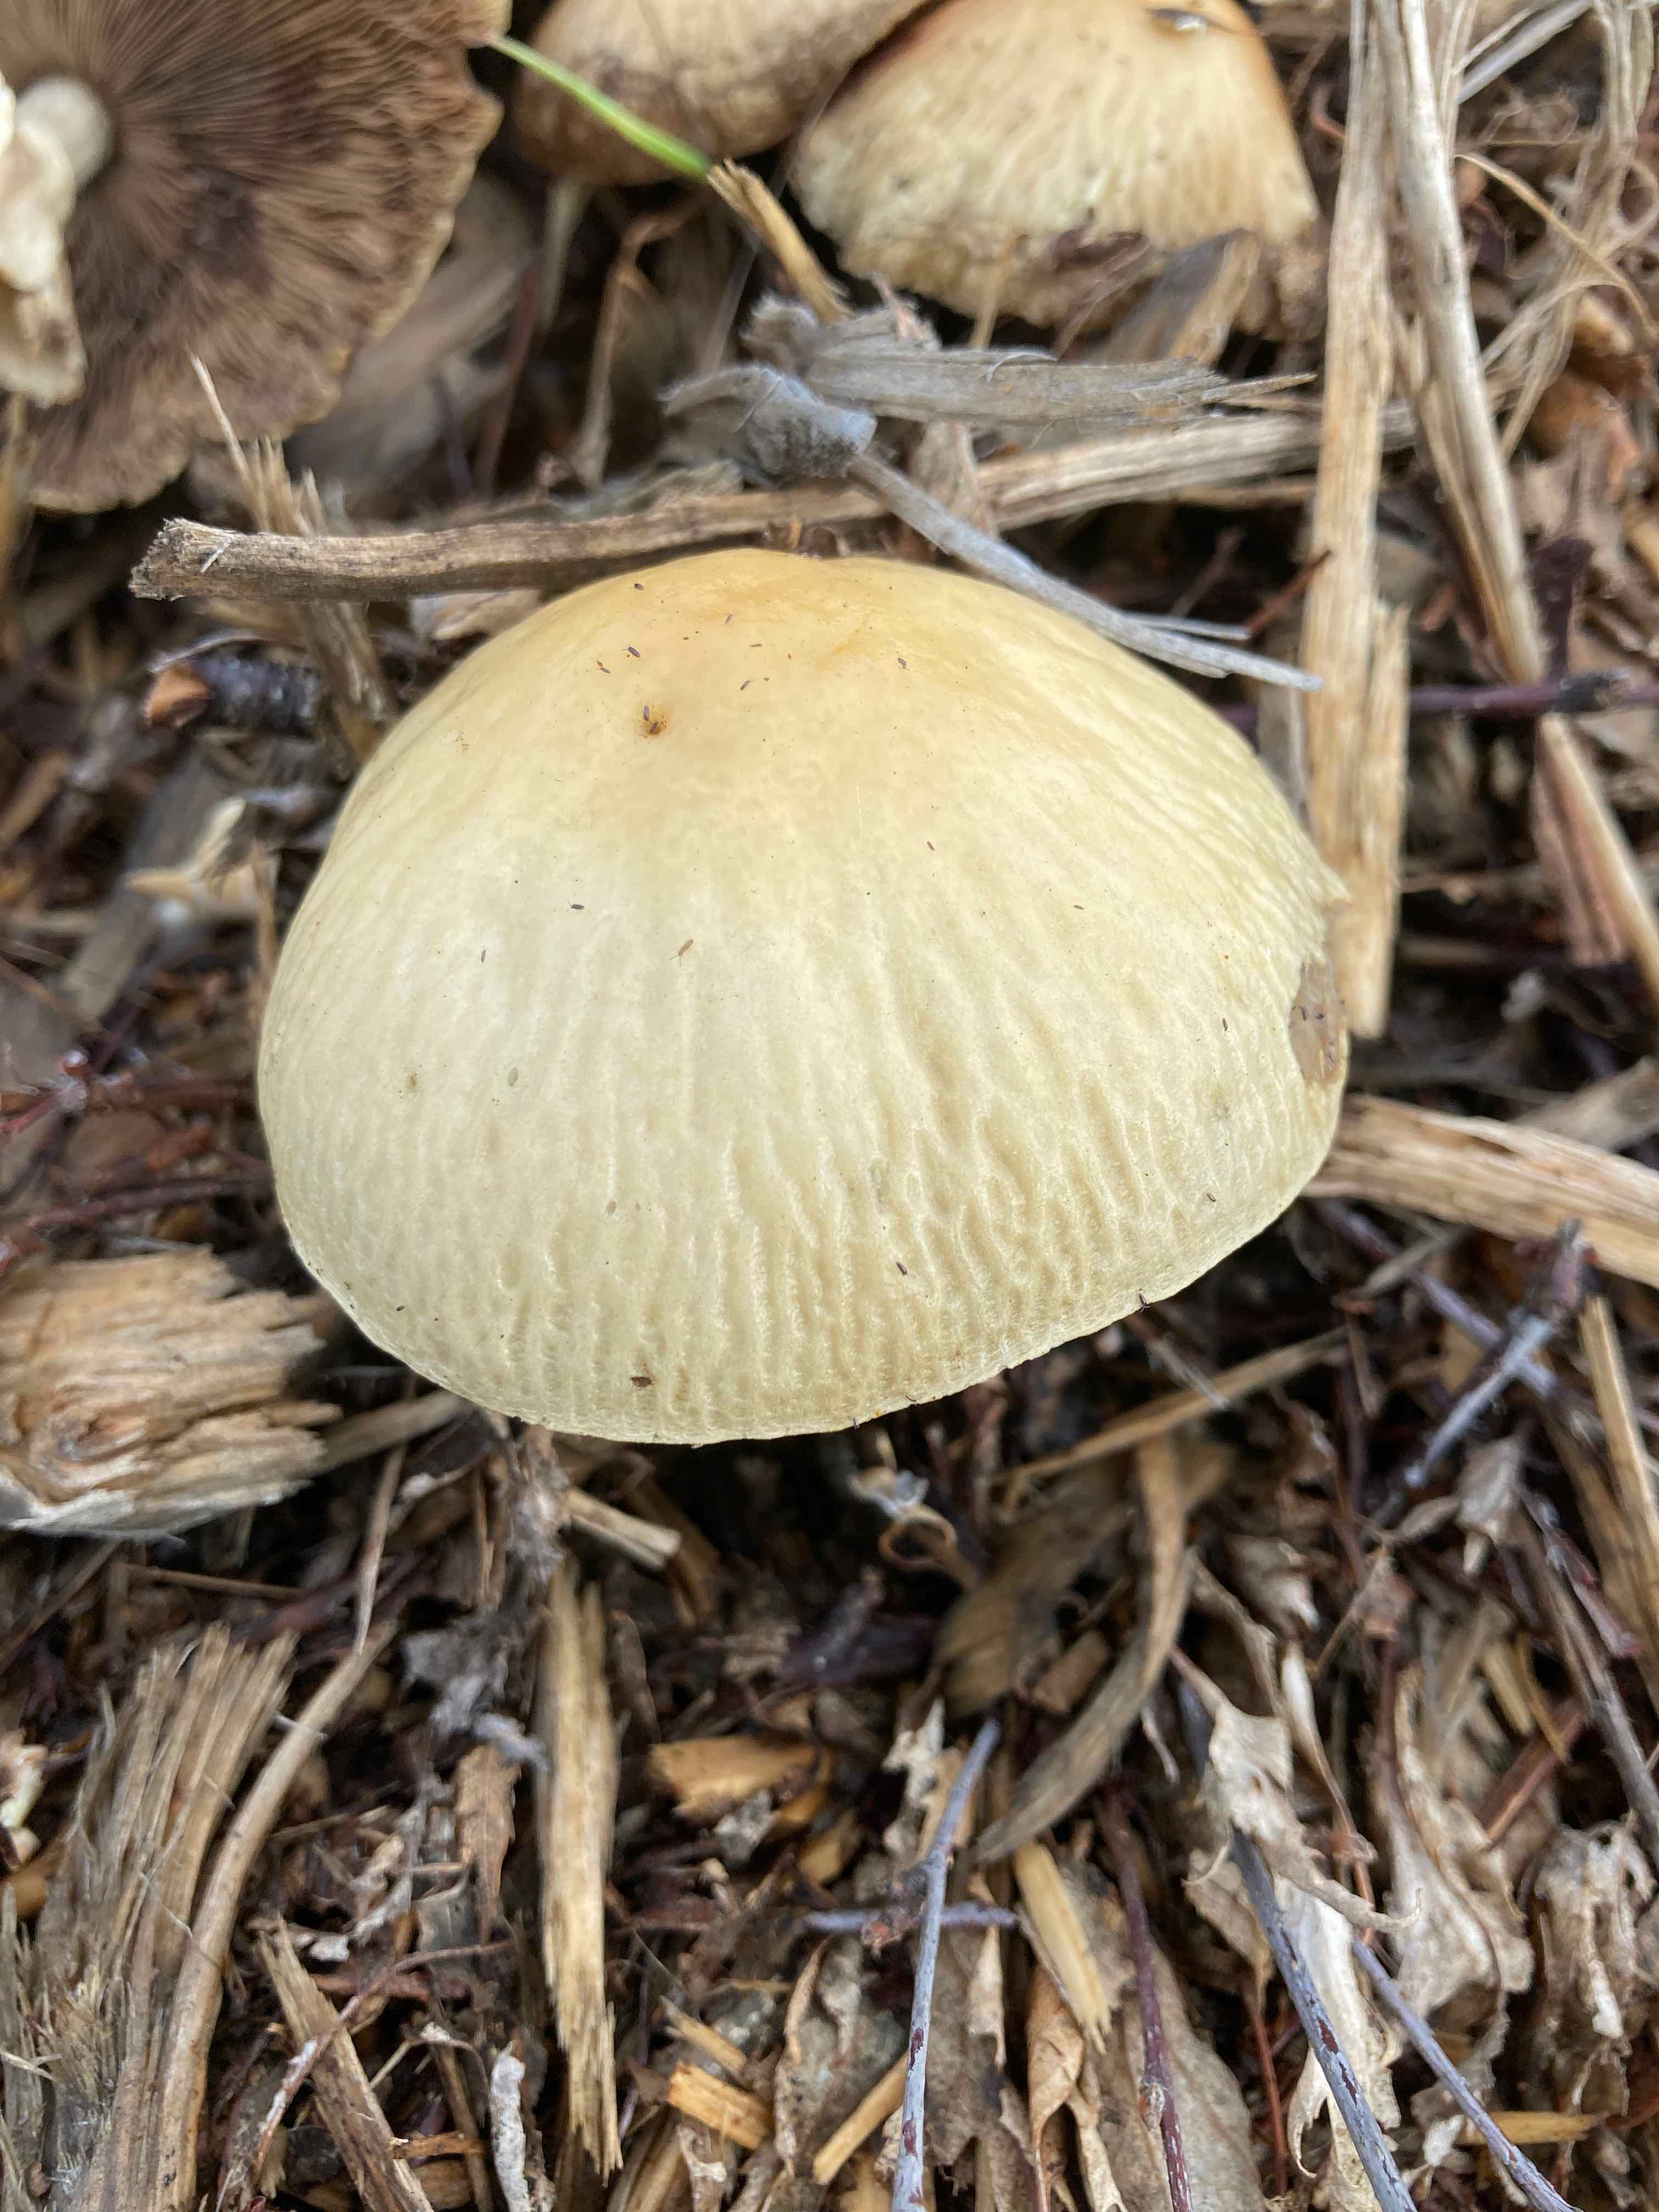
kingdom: Fungi
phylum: Basidiomycota
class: Agaricomycetes
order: Agaricales
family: Strophariaceae
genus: Agrocybe
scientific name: Agrocybe rivulosa
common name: året agerhat
